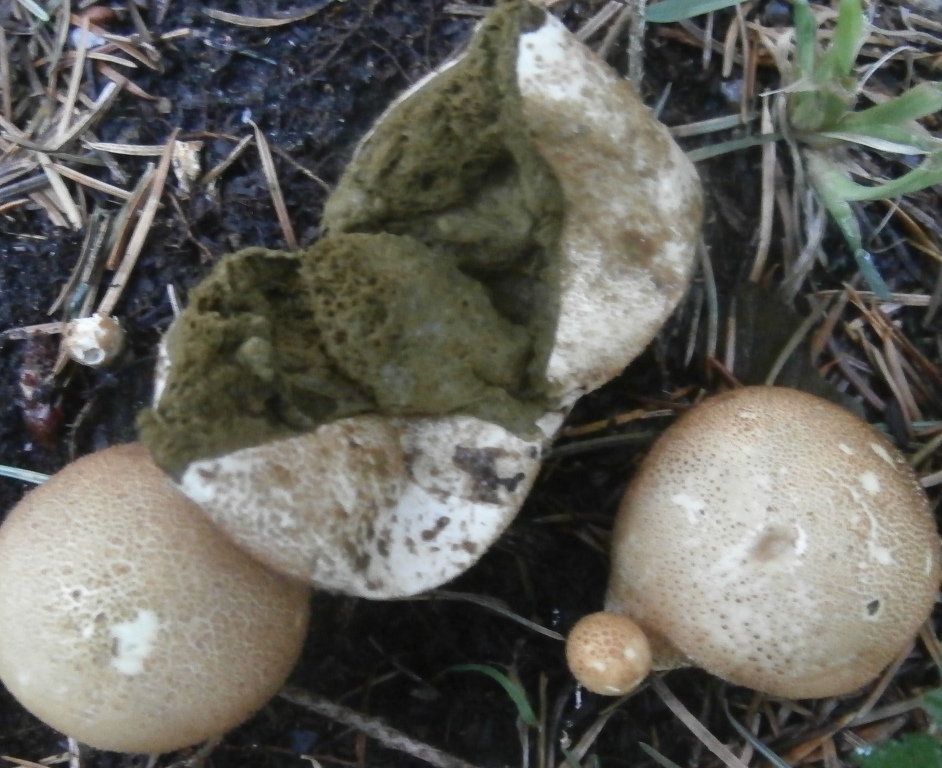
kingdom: Fungi
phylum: Basidiomycota
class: Agaricomycetes
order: Agaricales
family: Lycoperdaceae
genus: Apioperdon
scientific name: Apioperdon pyriforme
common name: pære-støvbold
